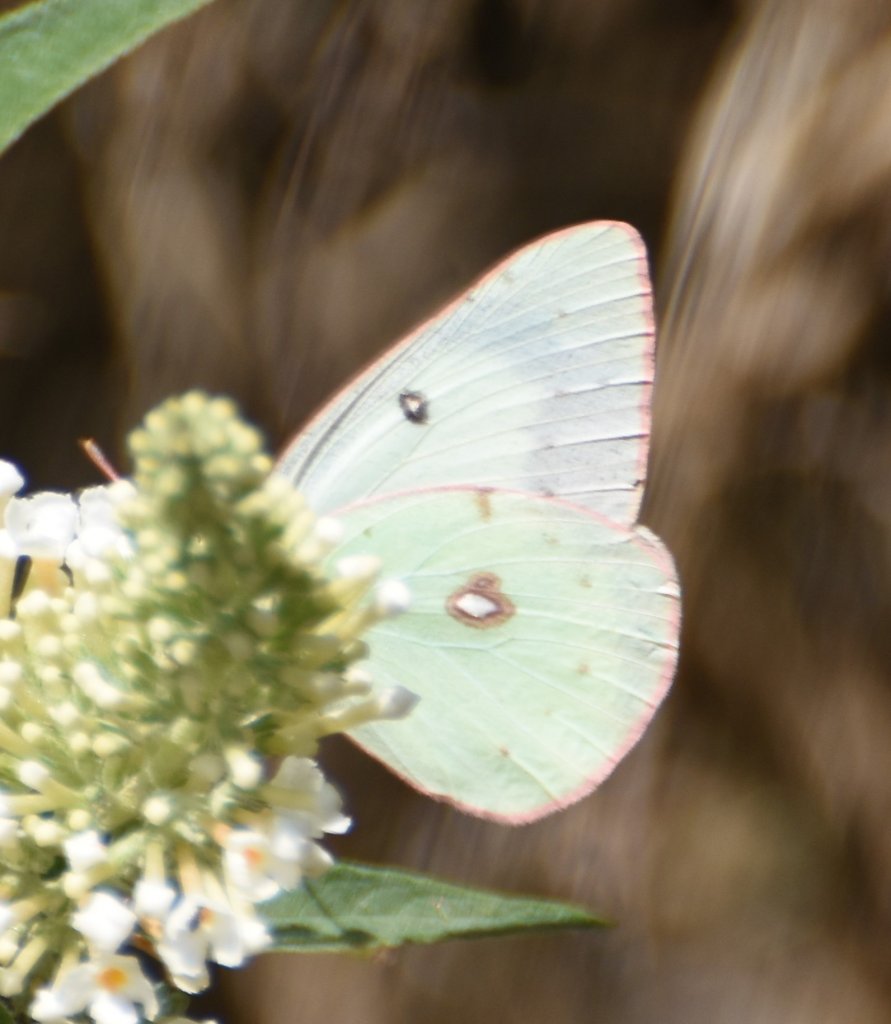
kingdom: Animalia
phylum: Arthropoda
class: Insecta
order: Lepidoptera
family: Pieridae
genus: Colias
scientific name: Colias
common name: Clouded Yellows
